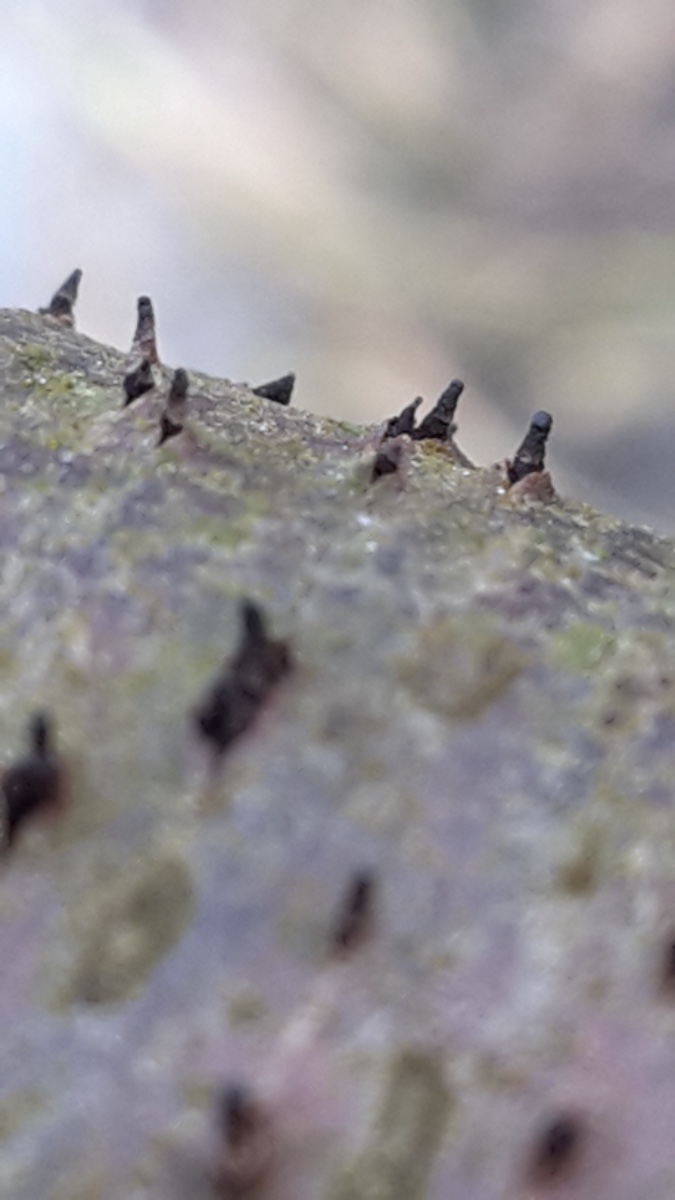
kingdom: Fungi
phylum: Ascomycota
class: Leotiomycetes
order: Helotiales
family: Dermateaceae
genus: Dermea
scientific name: Dermea prunastri
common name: blomme-klyngeskive
